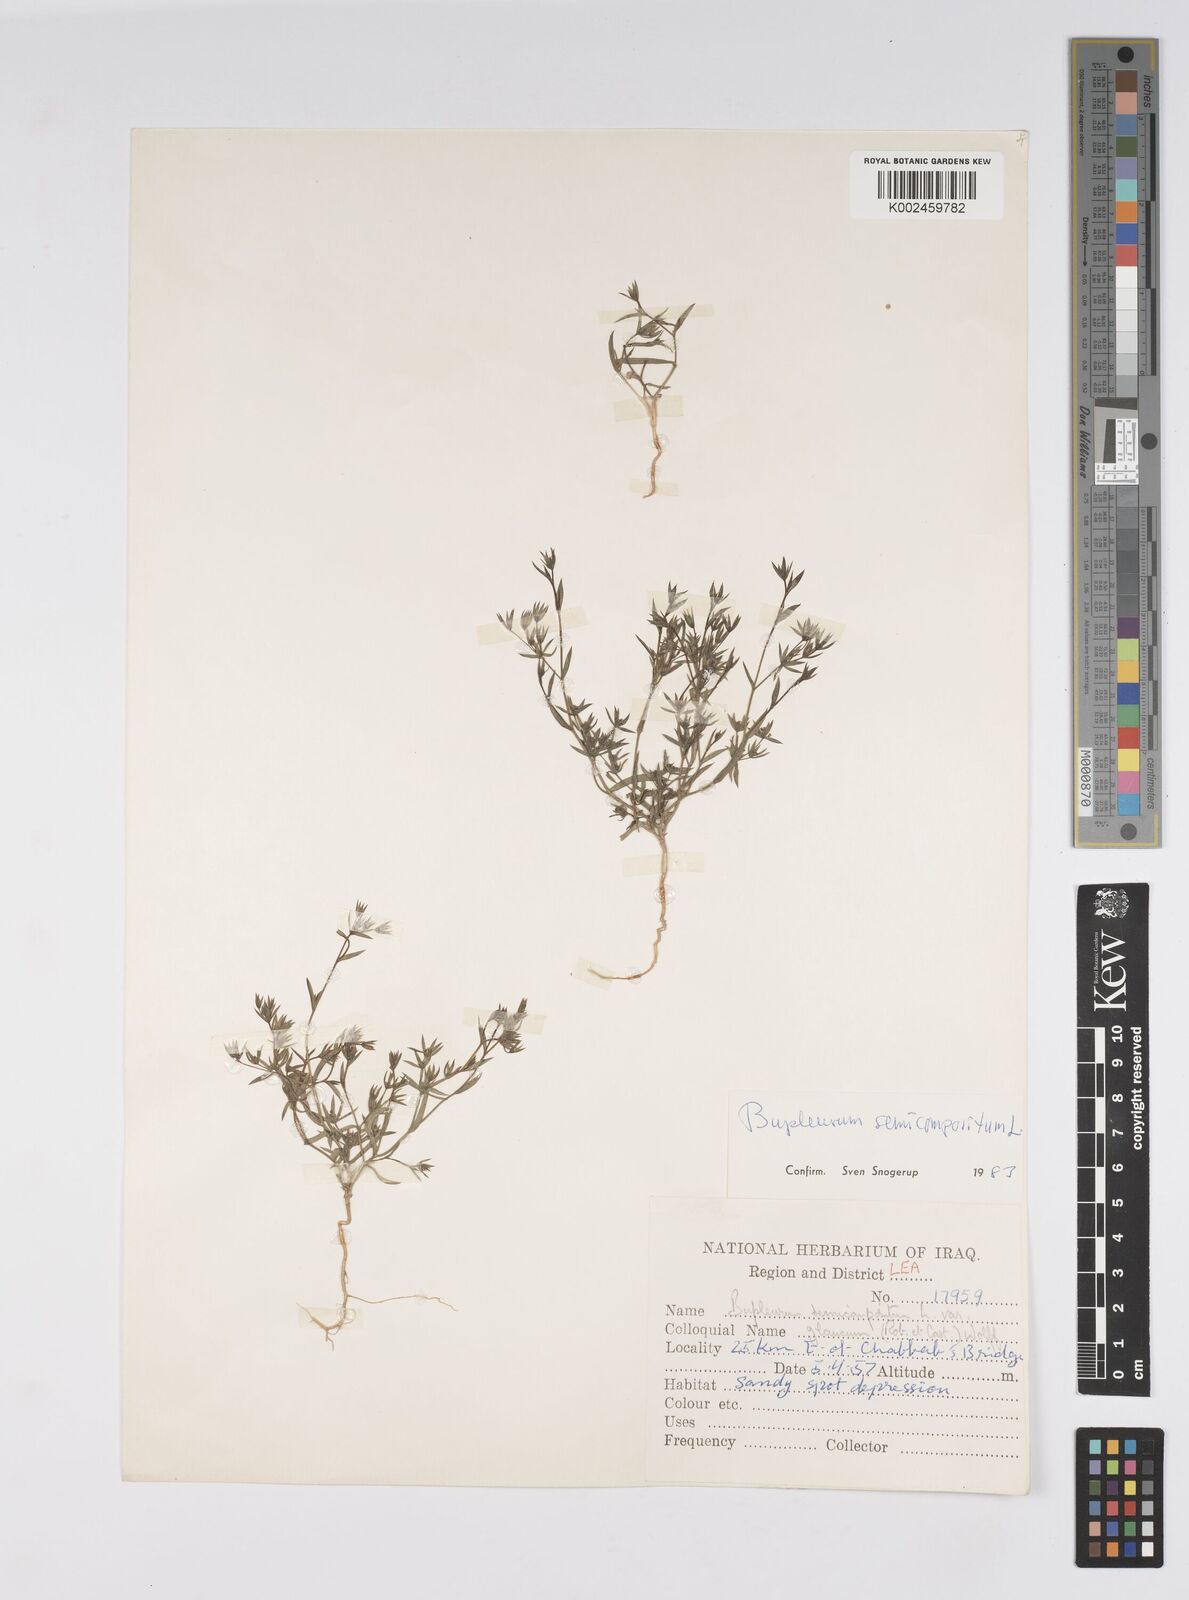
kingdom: Plantae
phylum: Tracheophyta
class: Magnoliopsida
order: Apiales
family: Apiaceae
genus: Bupleurum
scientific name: Bupleurum semicompositum
